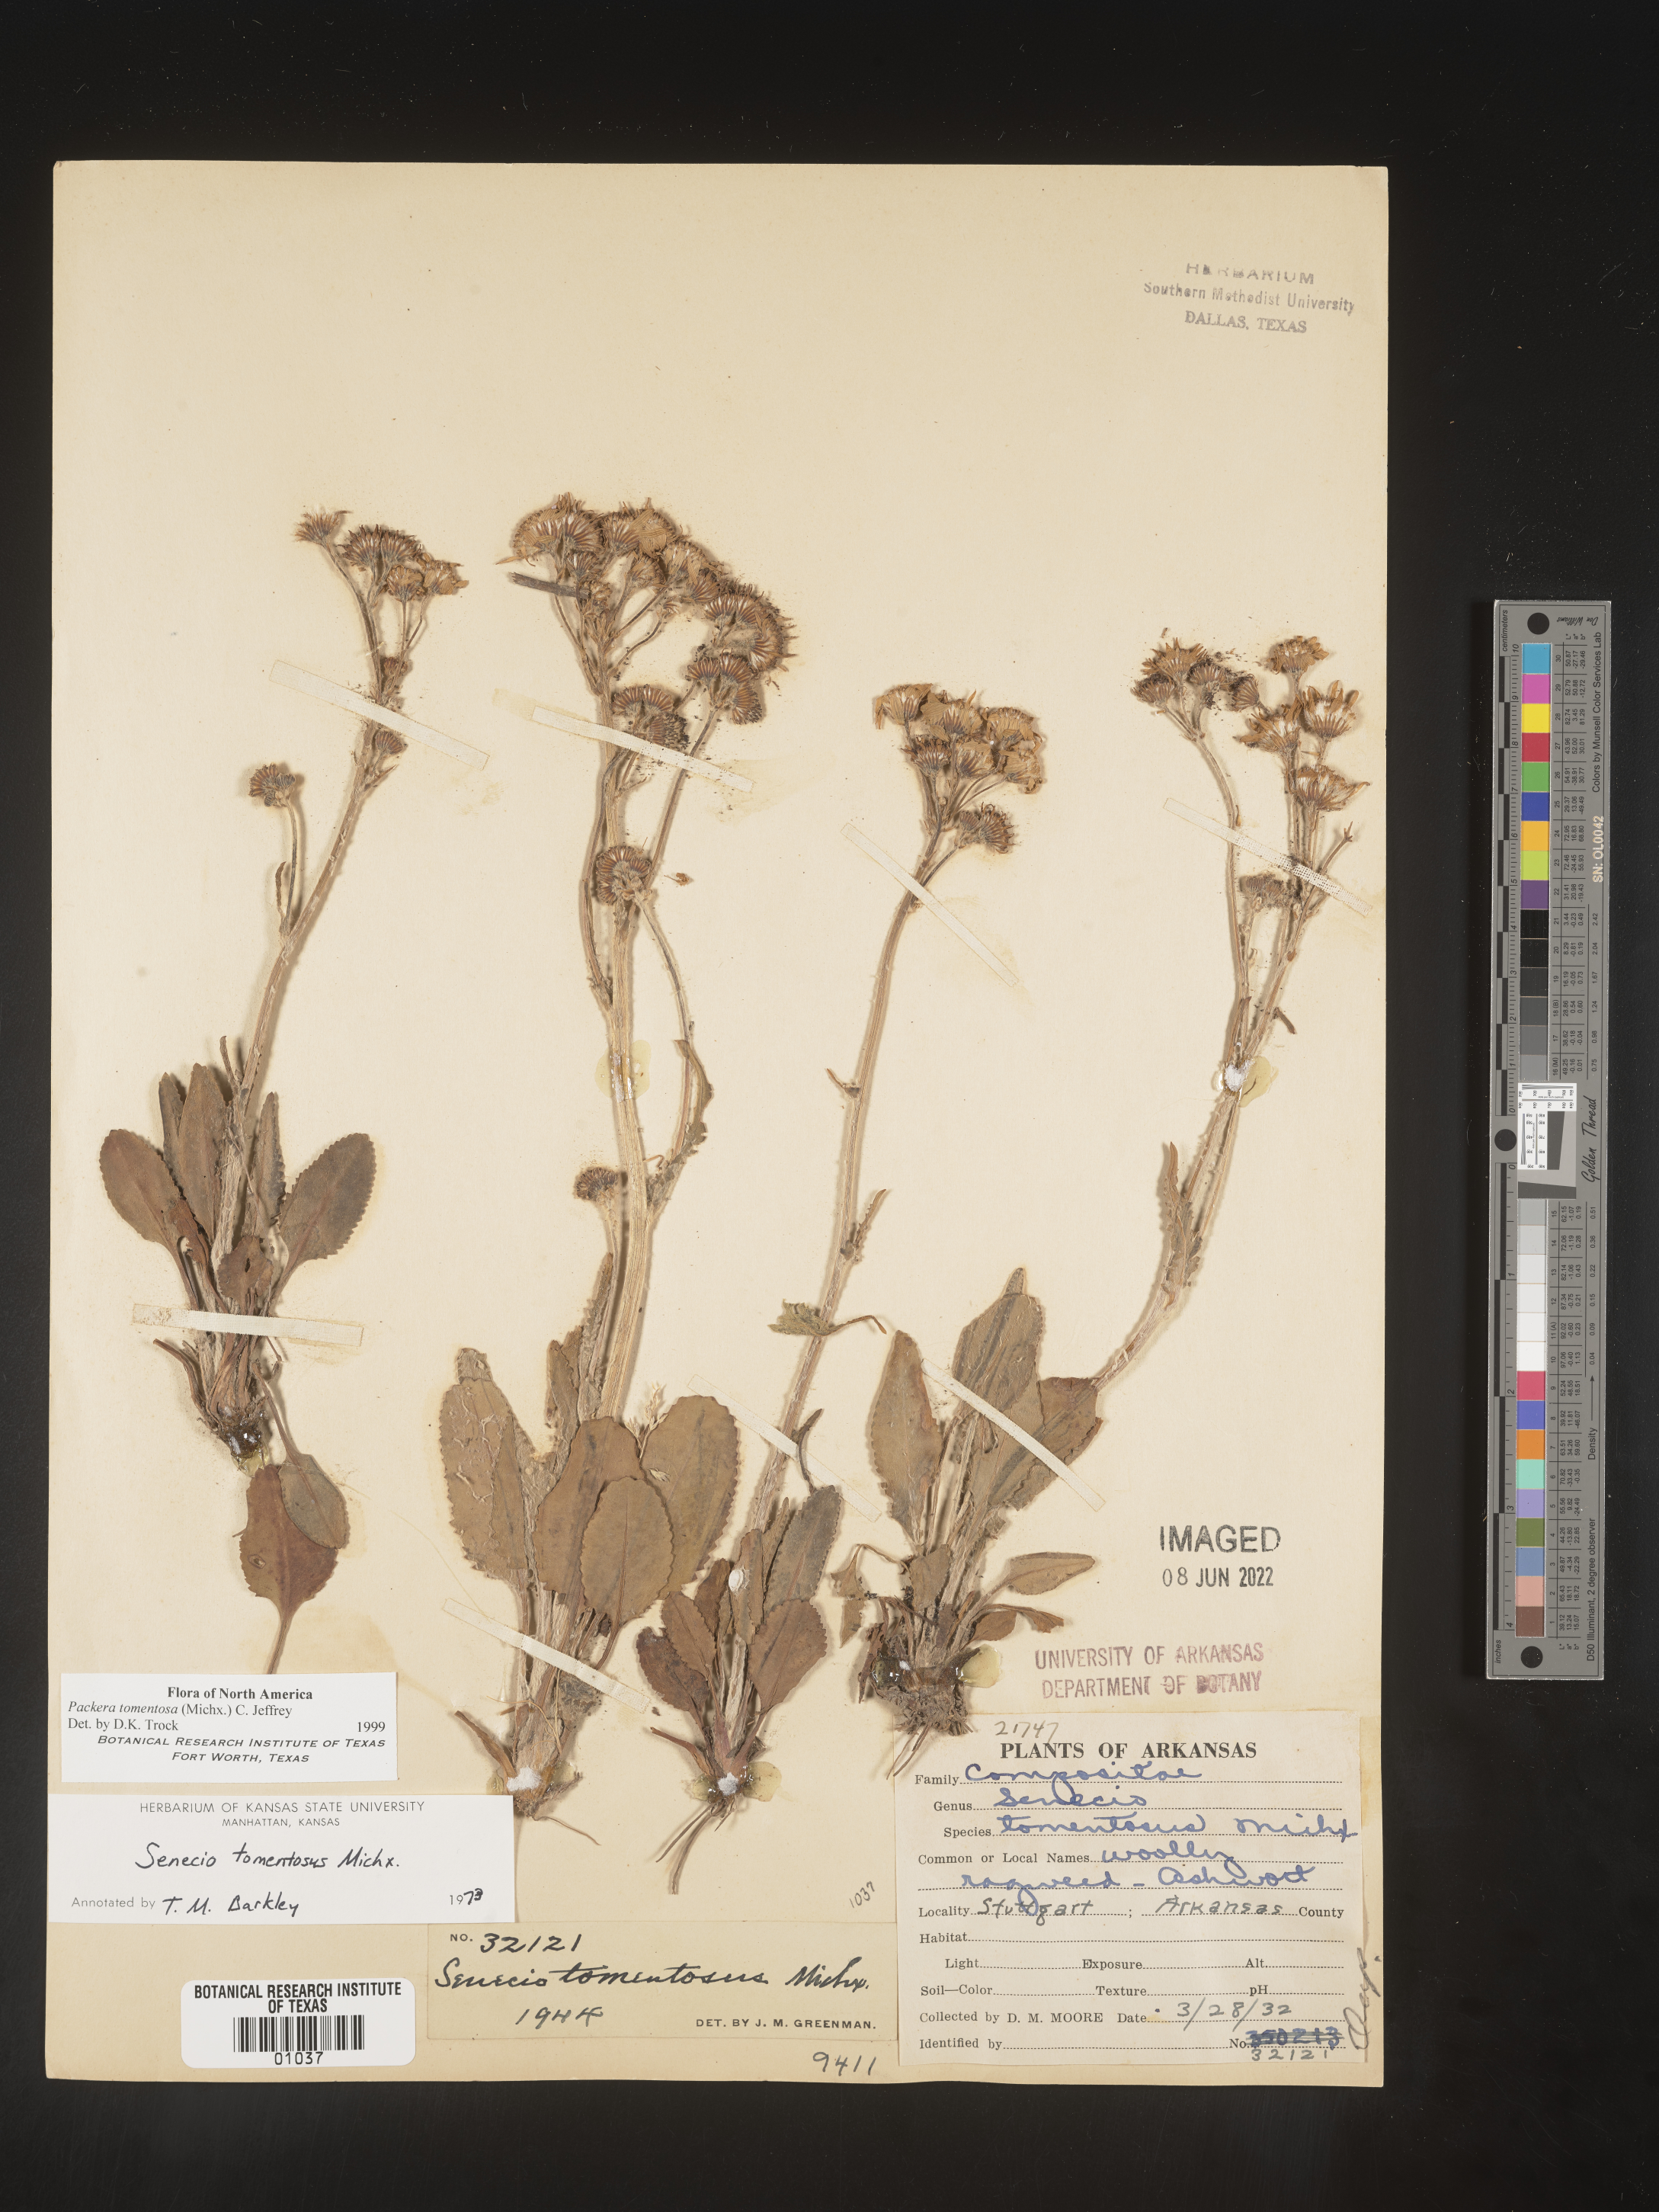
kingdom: Plantae
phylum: Tracheophyta
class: Magnoliopsida
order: Asterales
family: Asteraceae
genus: Packera
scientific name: Packera dubia
